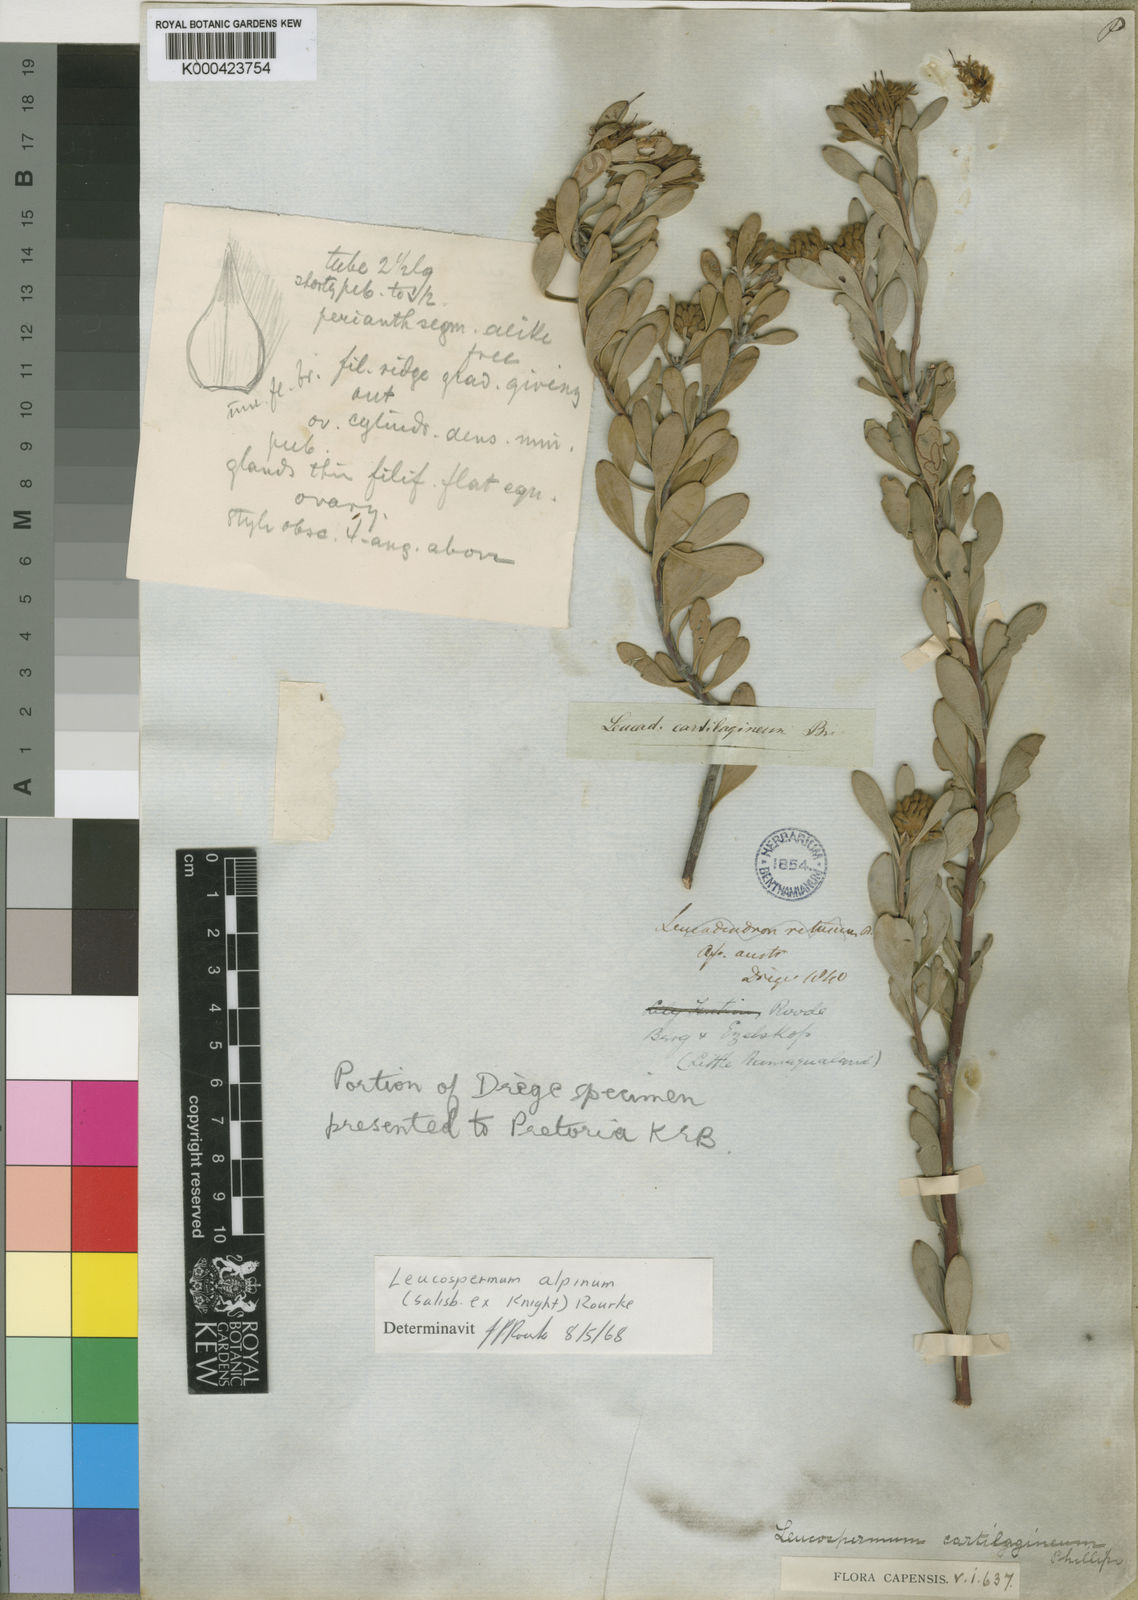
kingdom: Plantae
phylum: Tracheophyta
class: Magnoliopsida
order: Proteales
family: Proteaceae
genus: Vexatorella
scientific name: Vexatorella alpina
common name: Kamiesberg vexator
